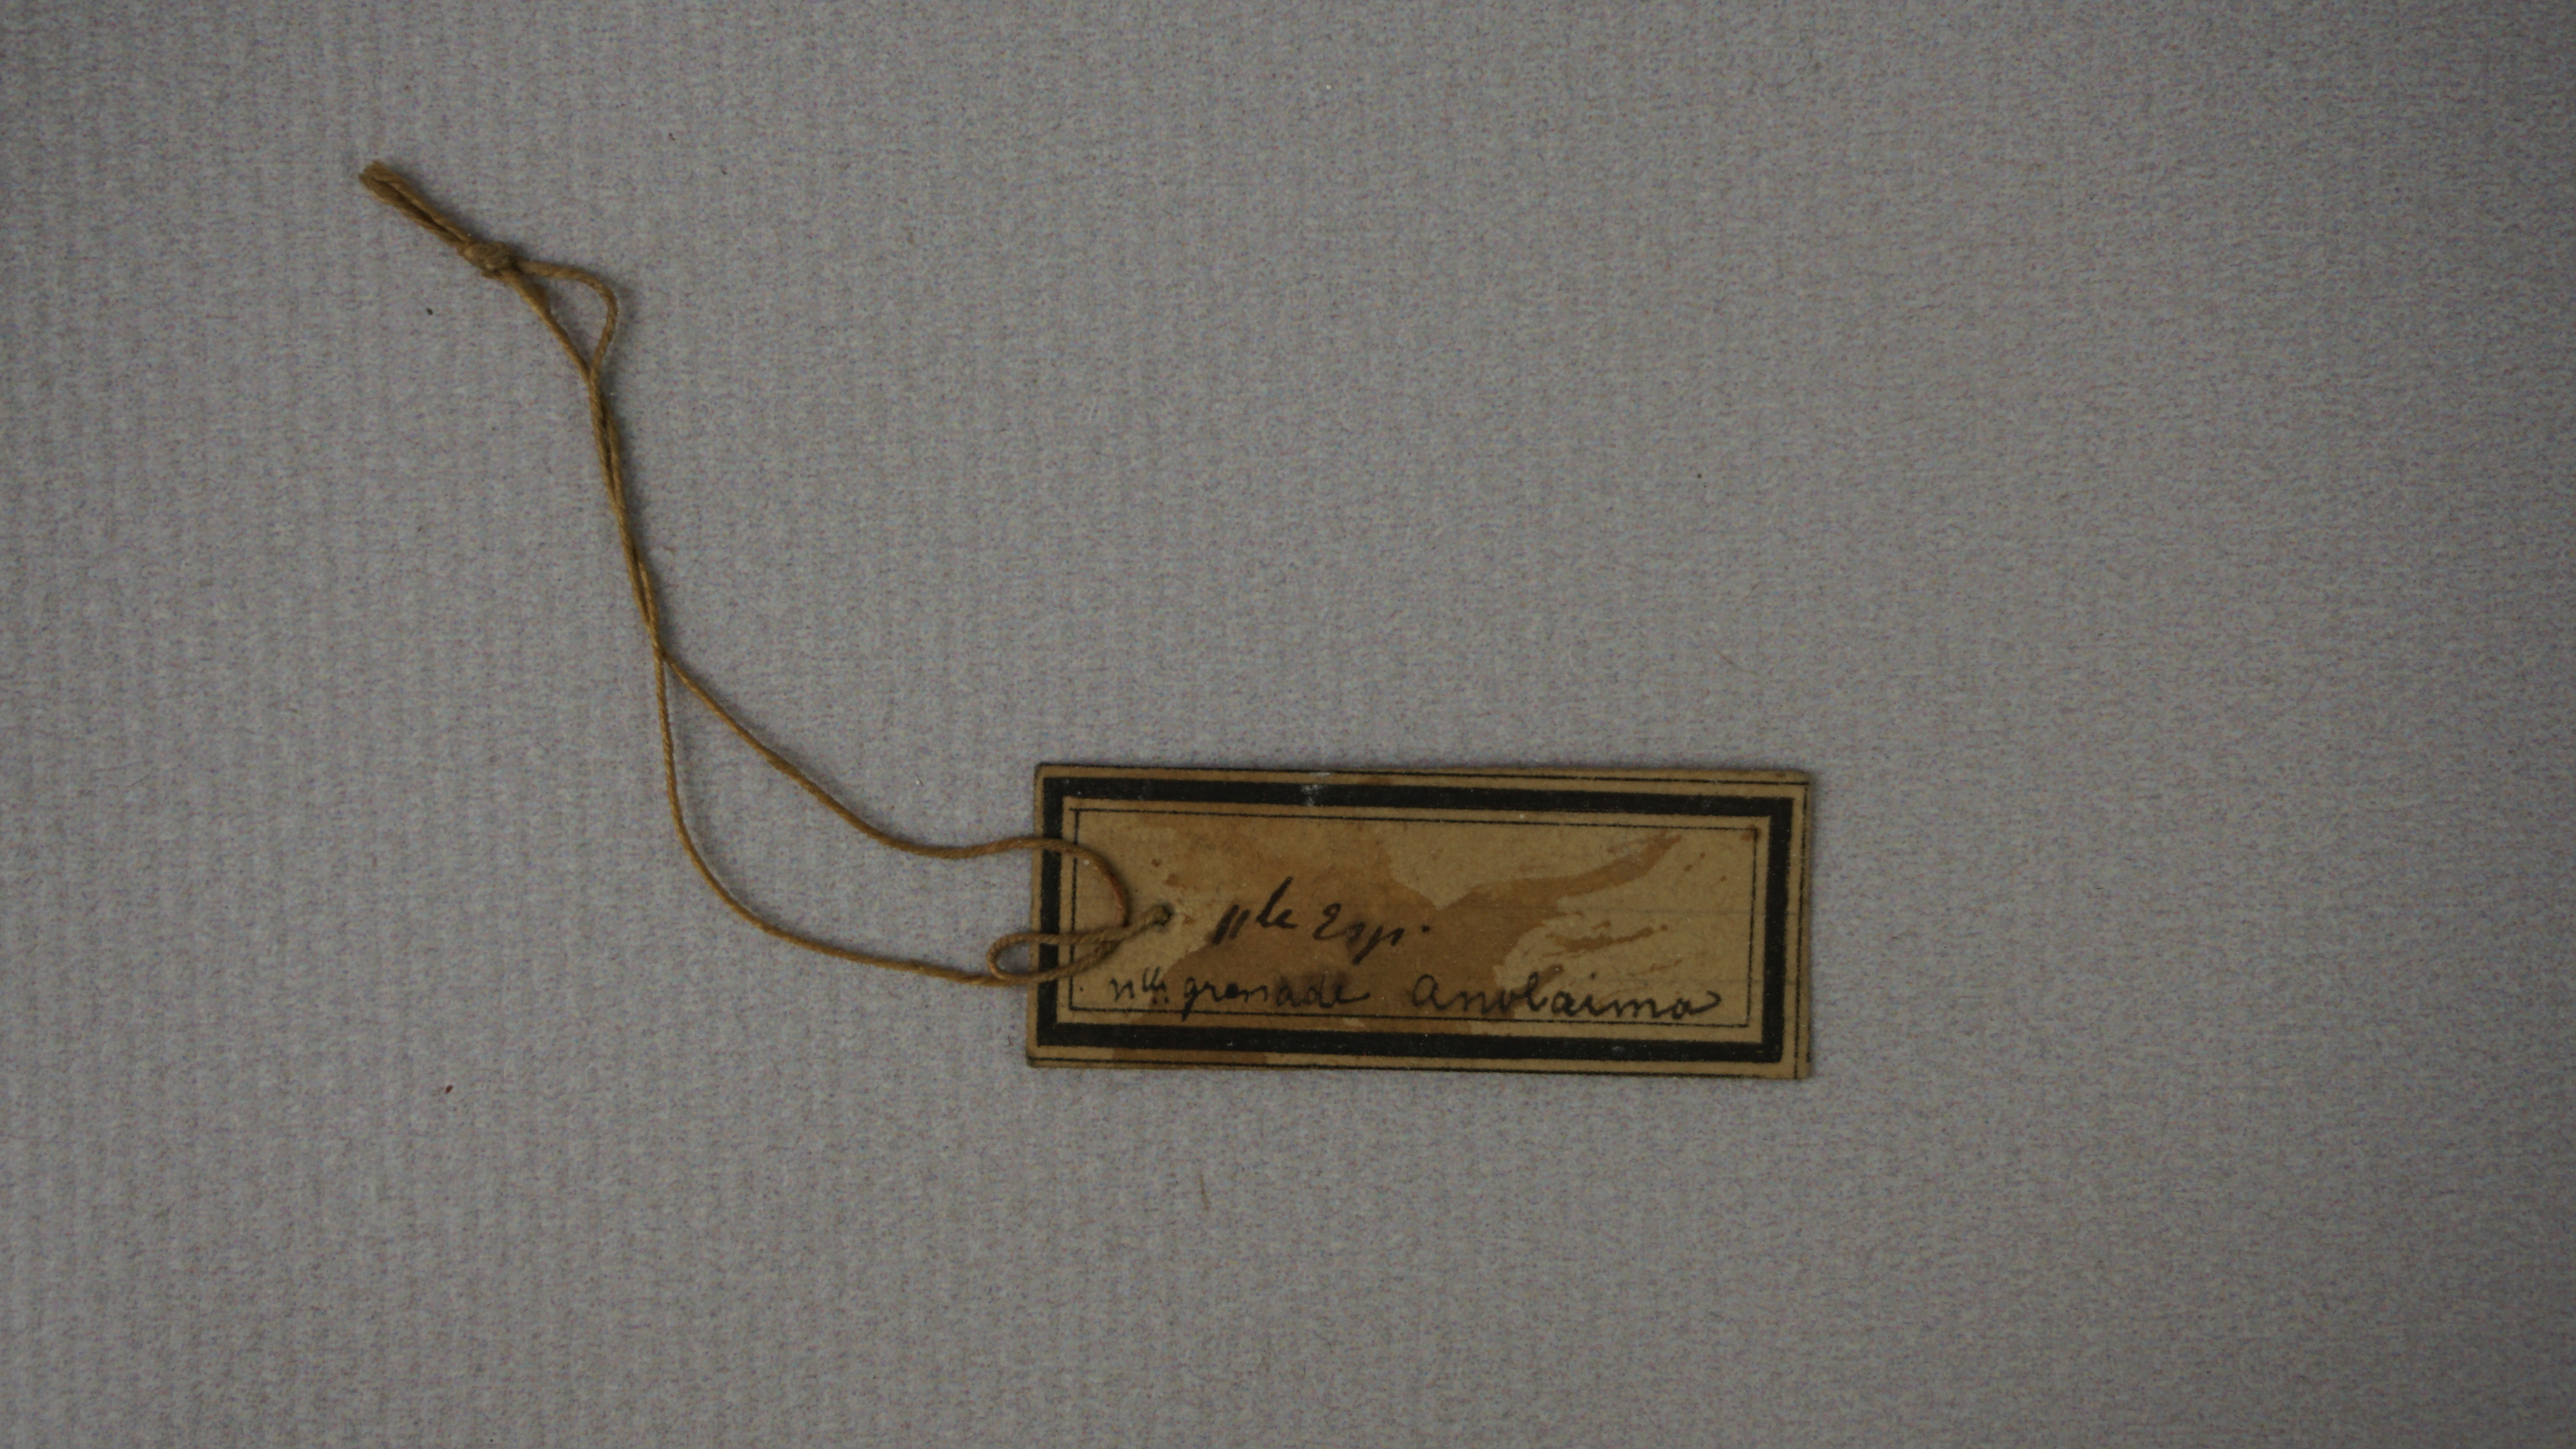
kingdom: Animalia
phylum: Chordata
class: Aves
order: Piciformes
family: Galbulidae
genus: Galbula
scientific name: Galbula tombacea
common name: White-chinned jacamar
